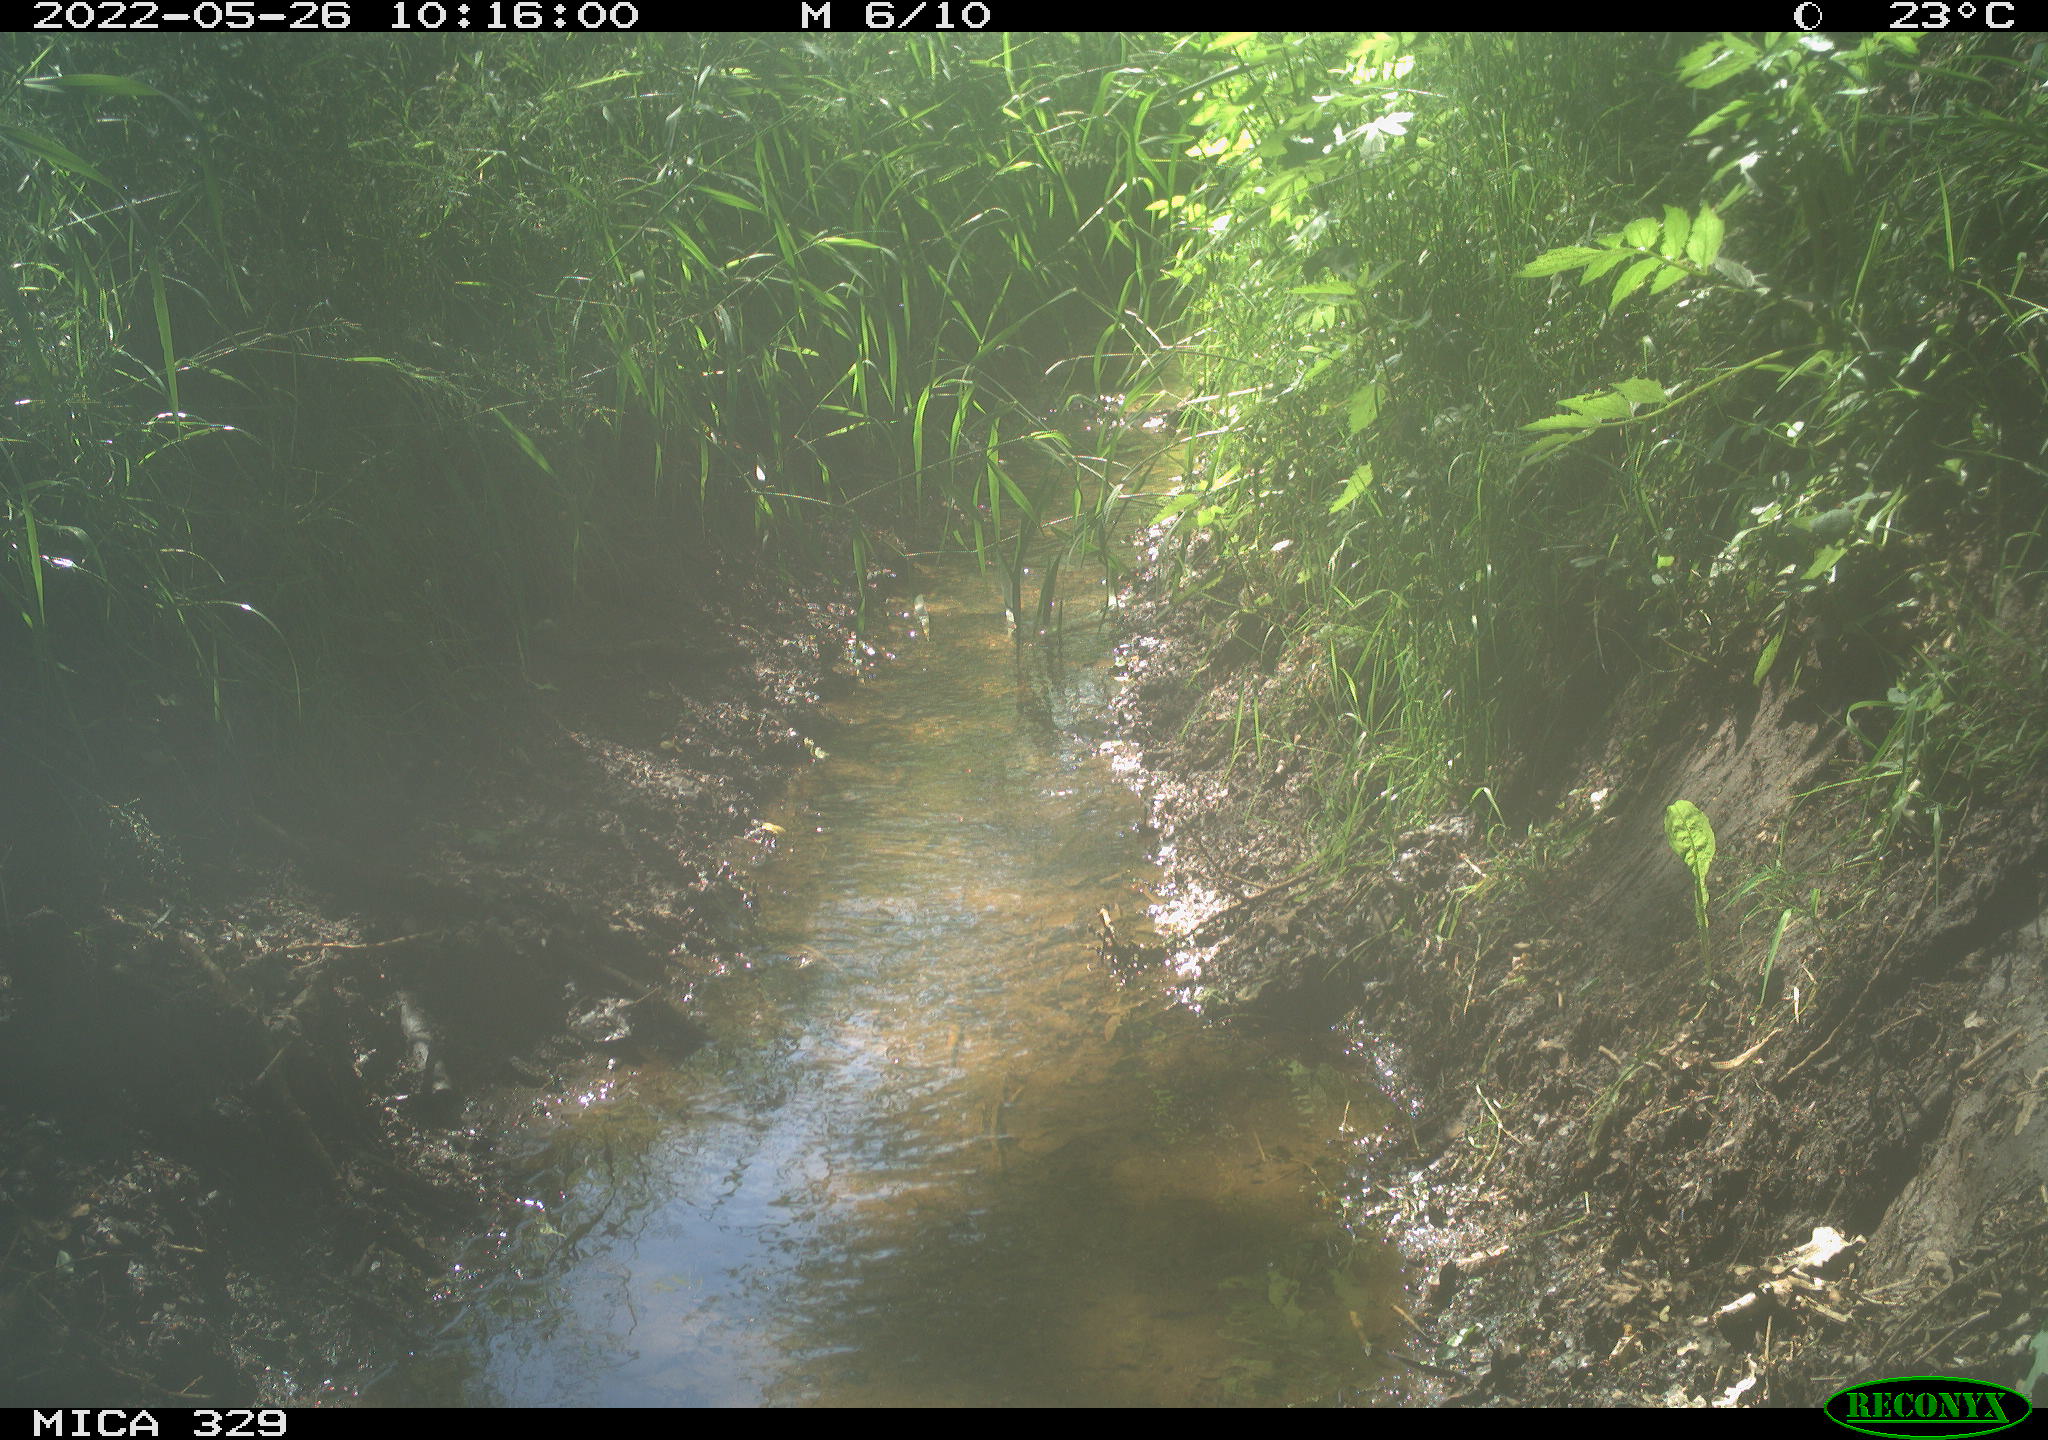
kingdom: Animalia
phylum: Chordata
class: Aves
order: Passeriformes
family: Turdidae
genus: Turdus
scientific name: Turdus merula
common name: Common blackbird
